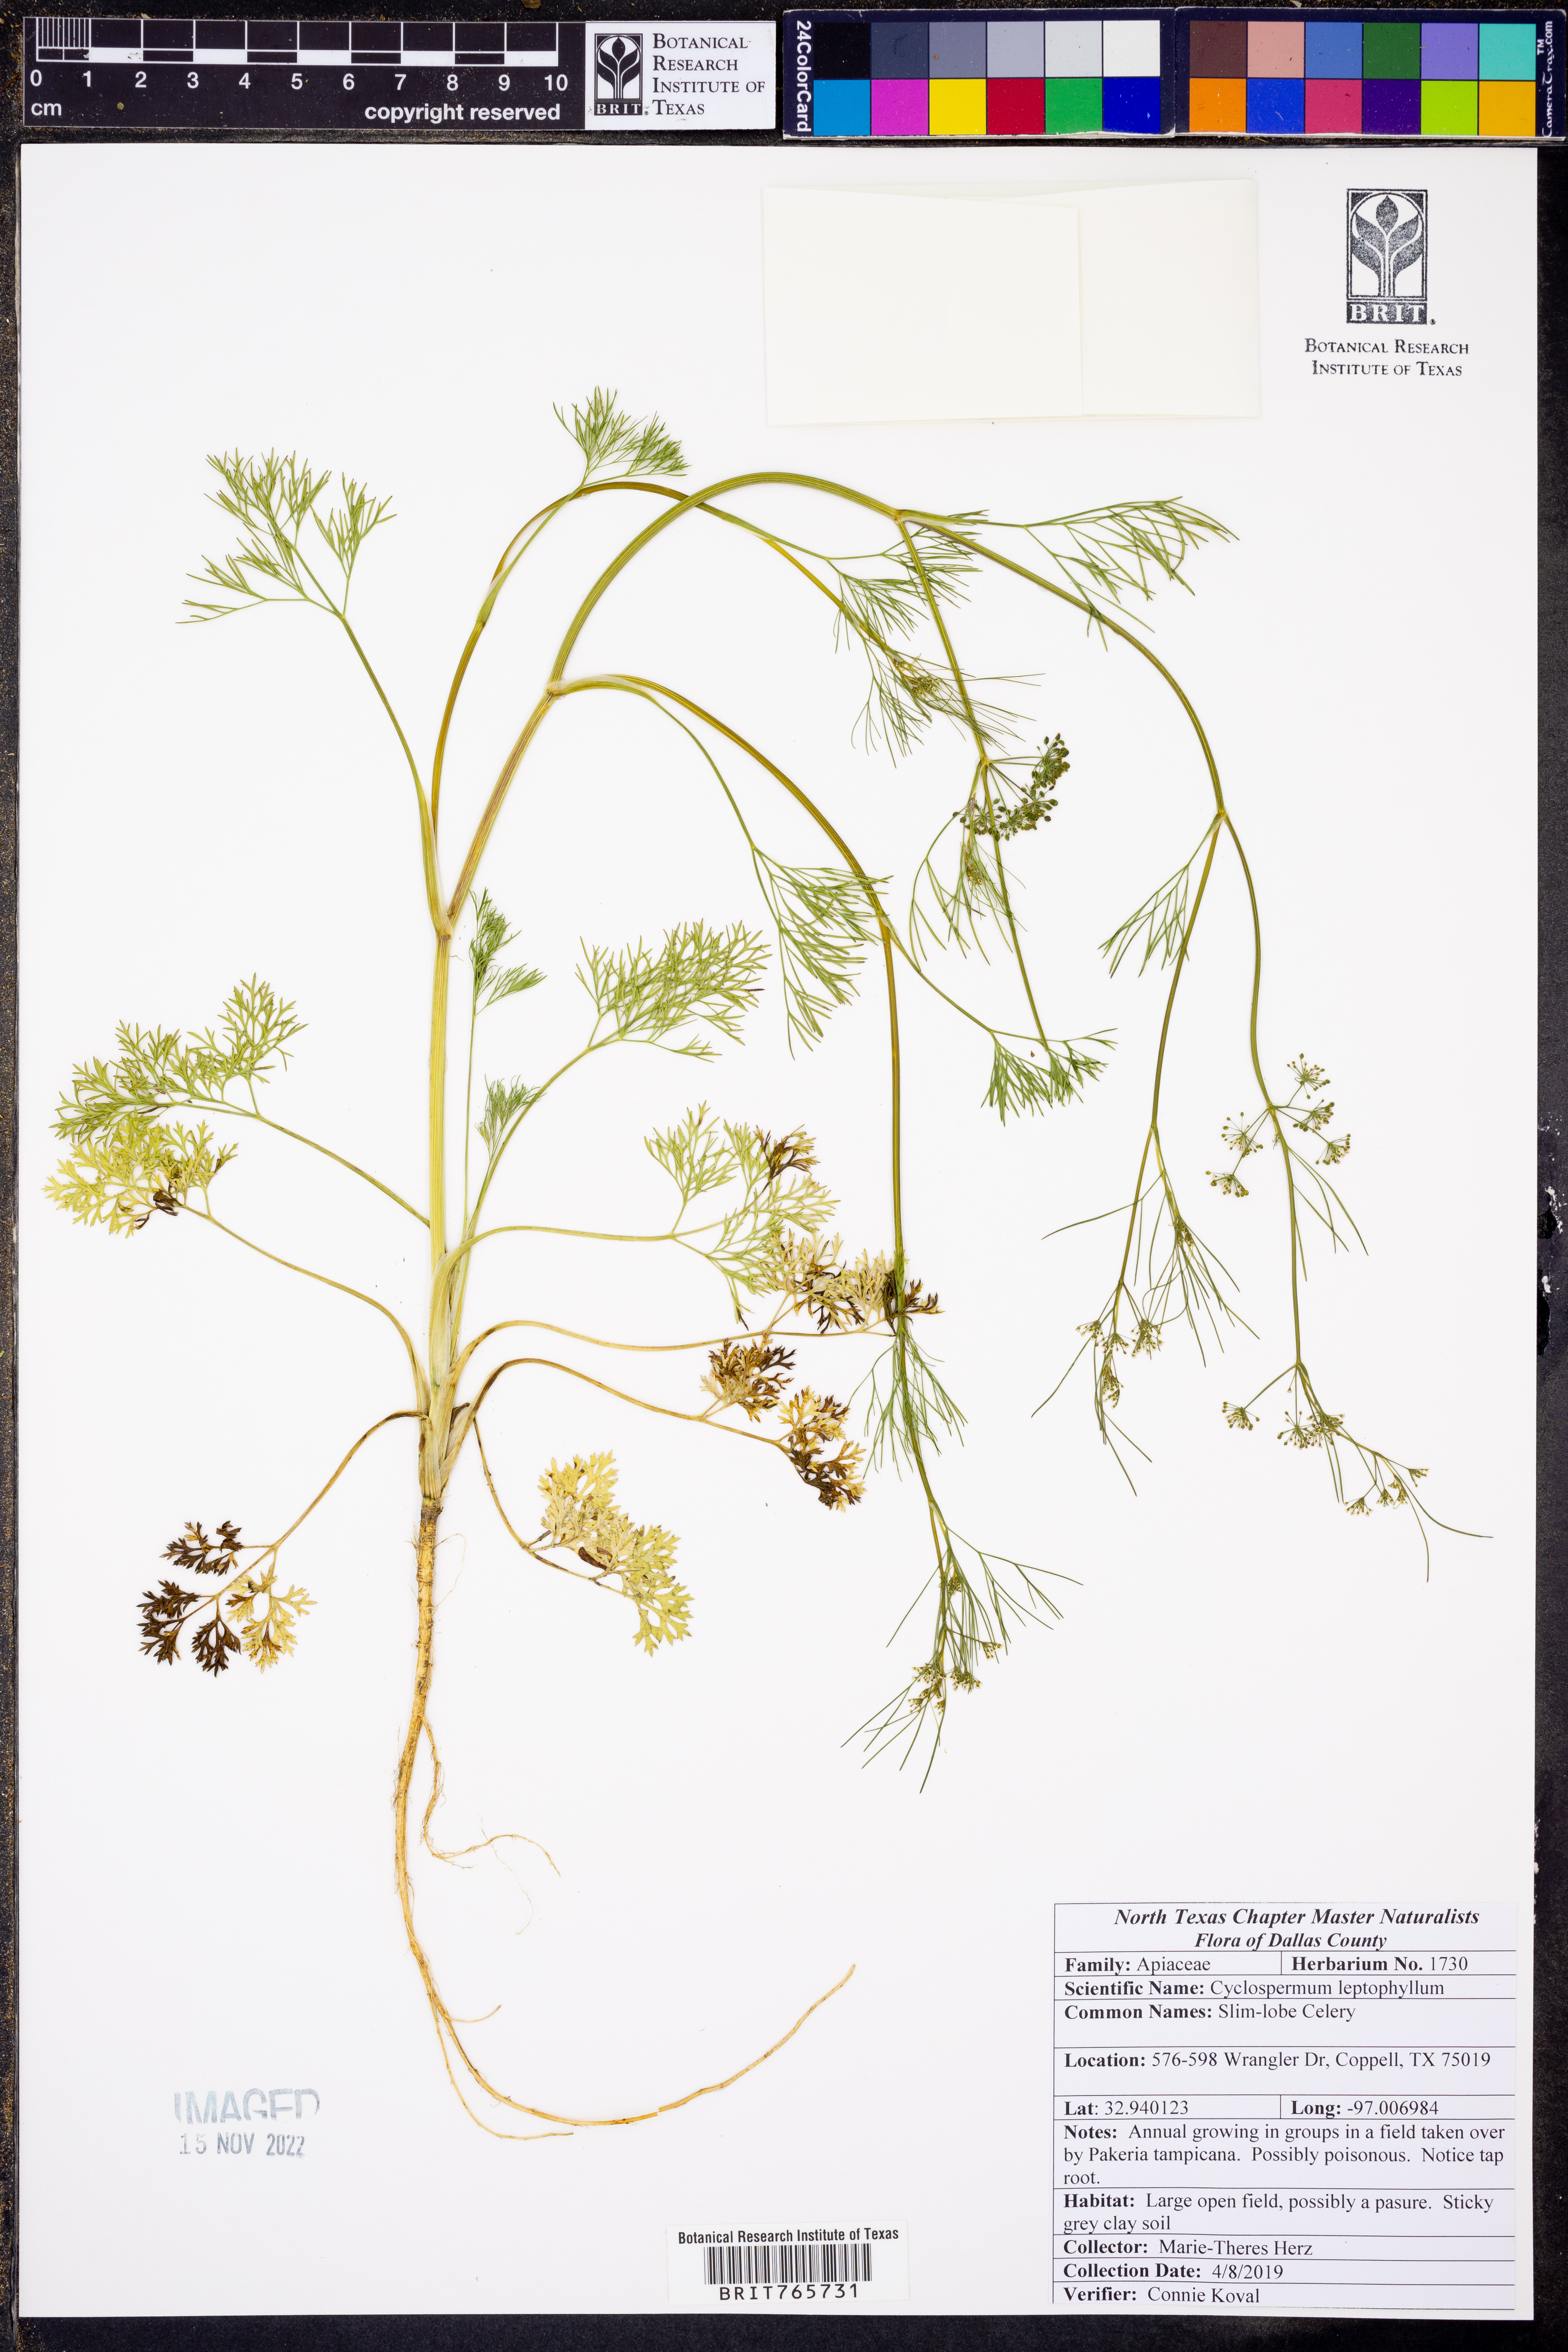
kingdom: Plantae
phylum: Tracheophyta
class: Magnoliopsida
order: Apiales
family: Apiaceae
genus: Cyclospermum
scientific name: Cyclospermum leptophyllum
